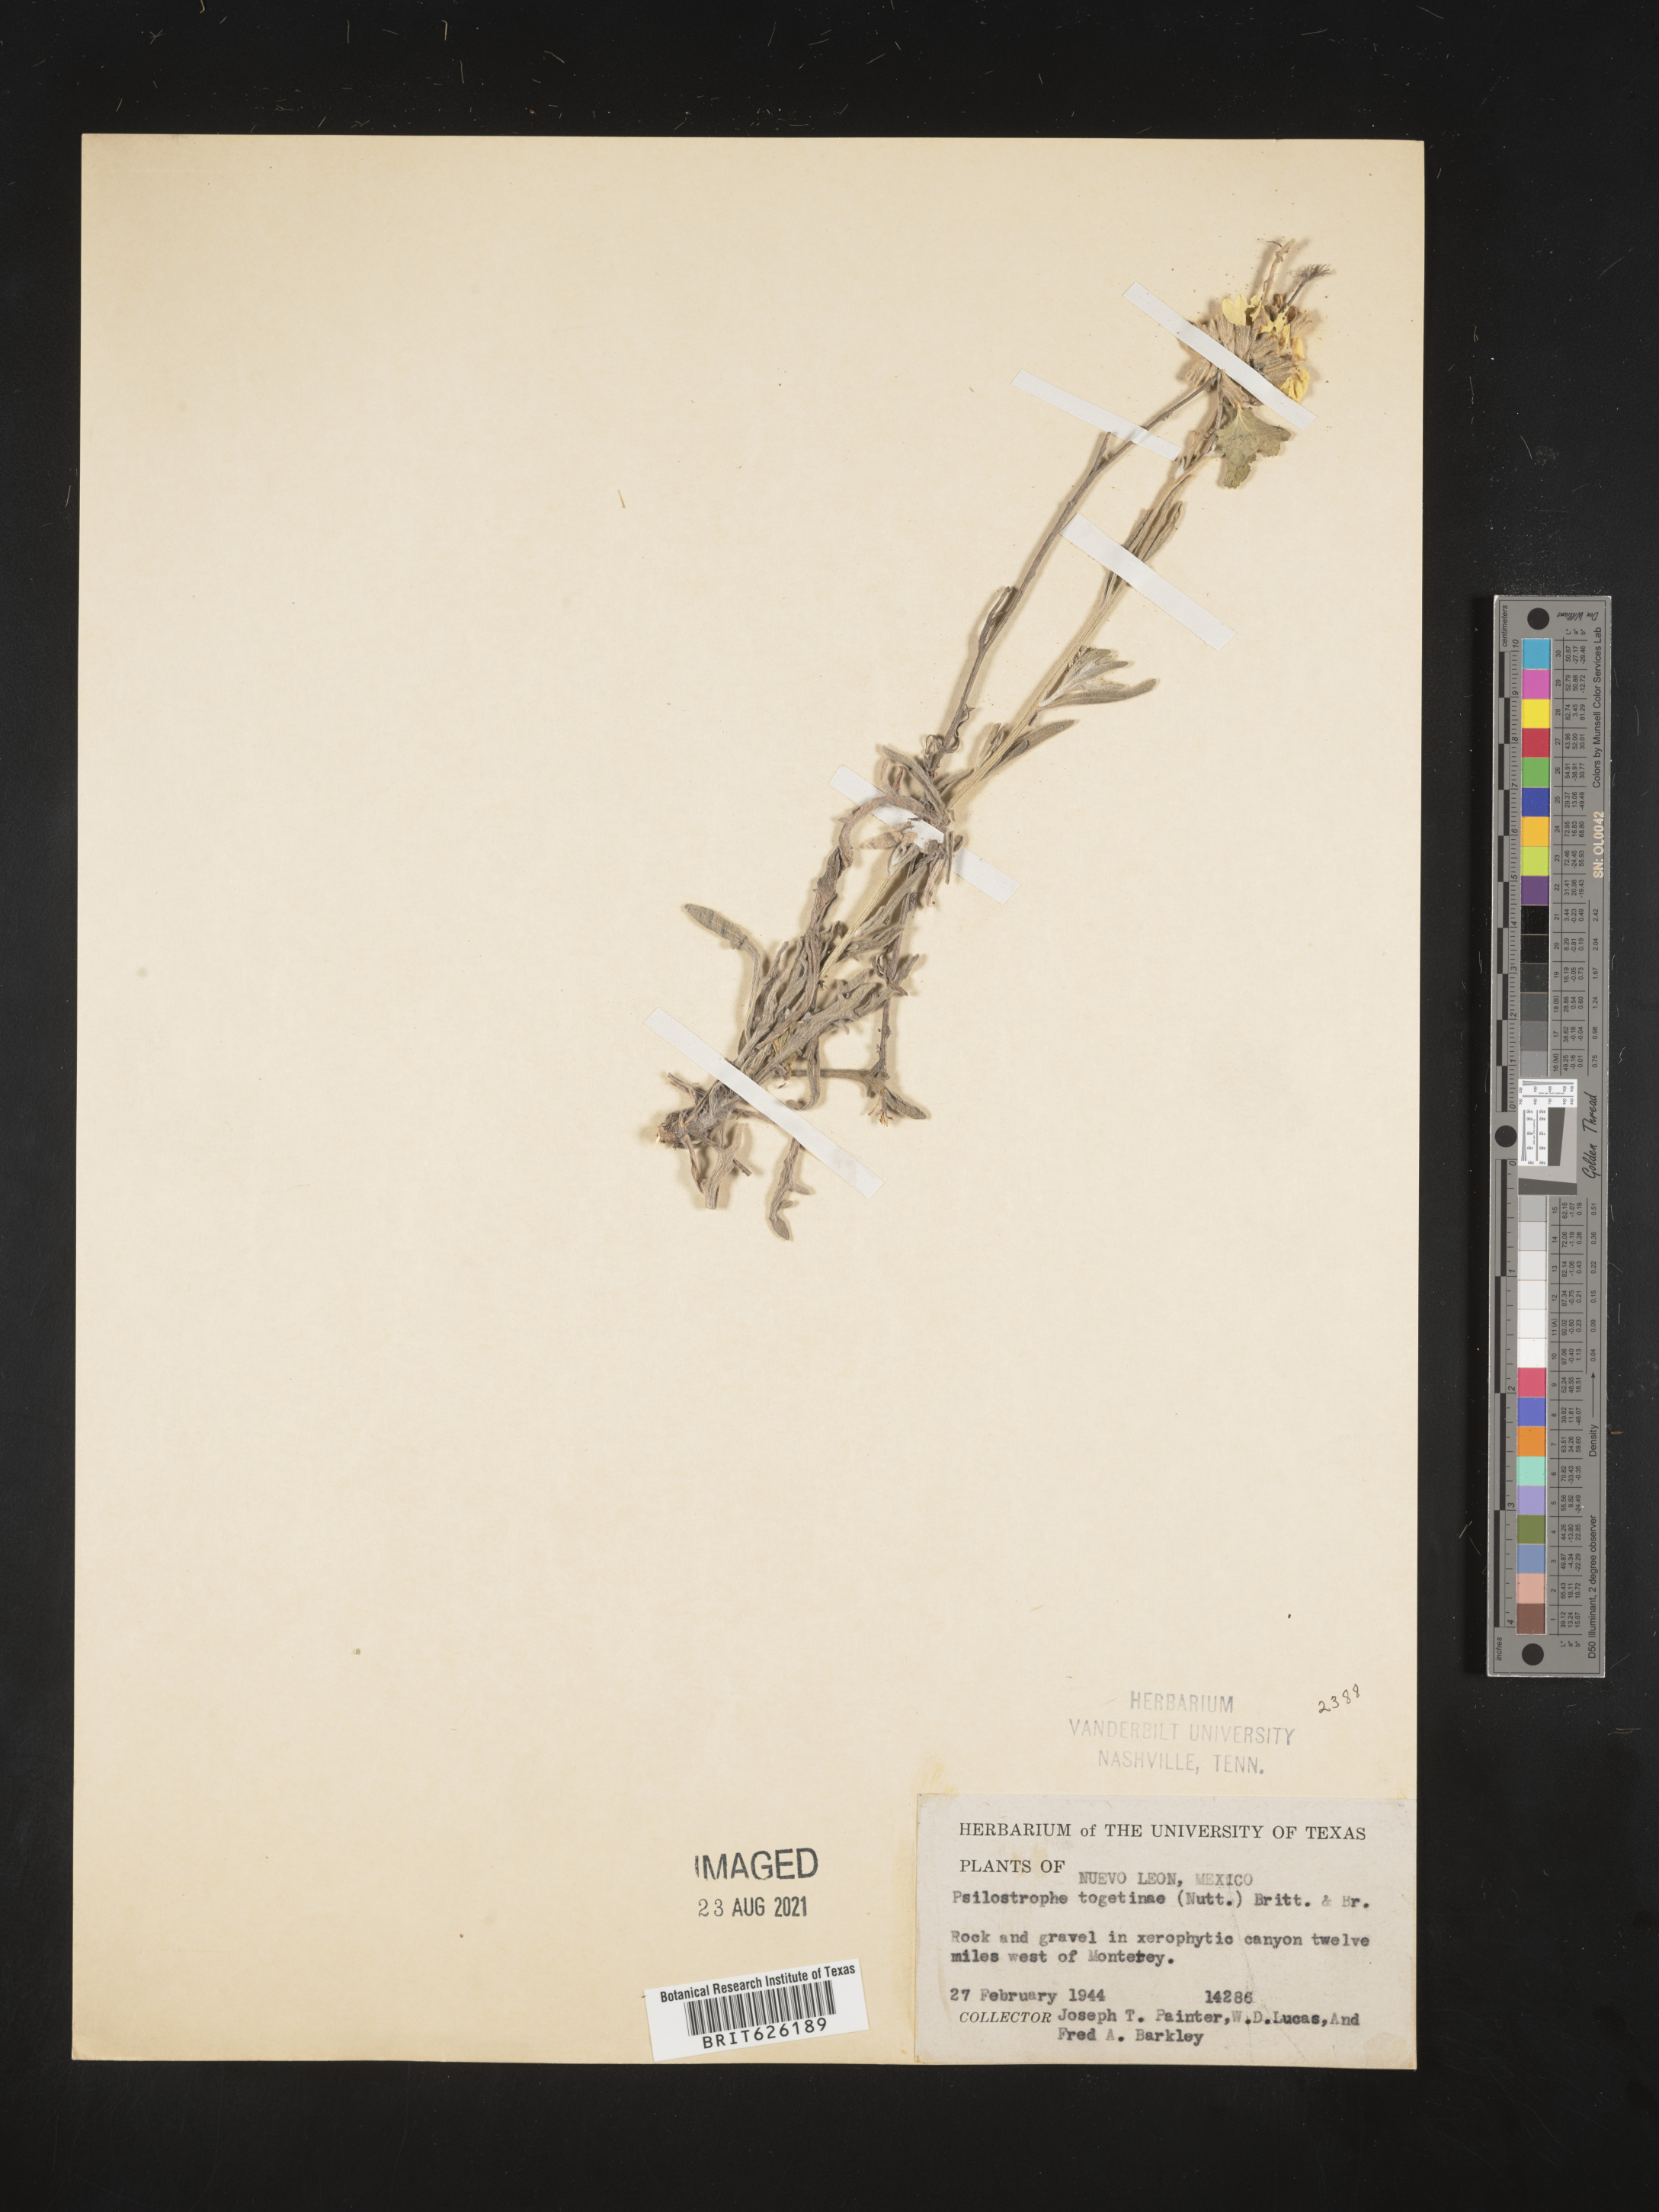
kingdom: Plantae
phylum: Tracheophyta
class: Magnoliopsida
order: Asterales
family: Asteraceae
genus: Psilostrophe
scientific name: Psilostrophe
